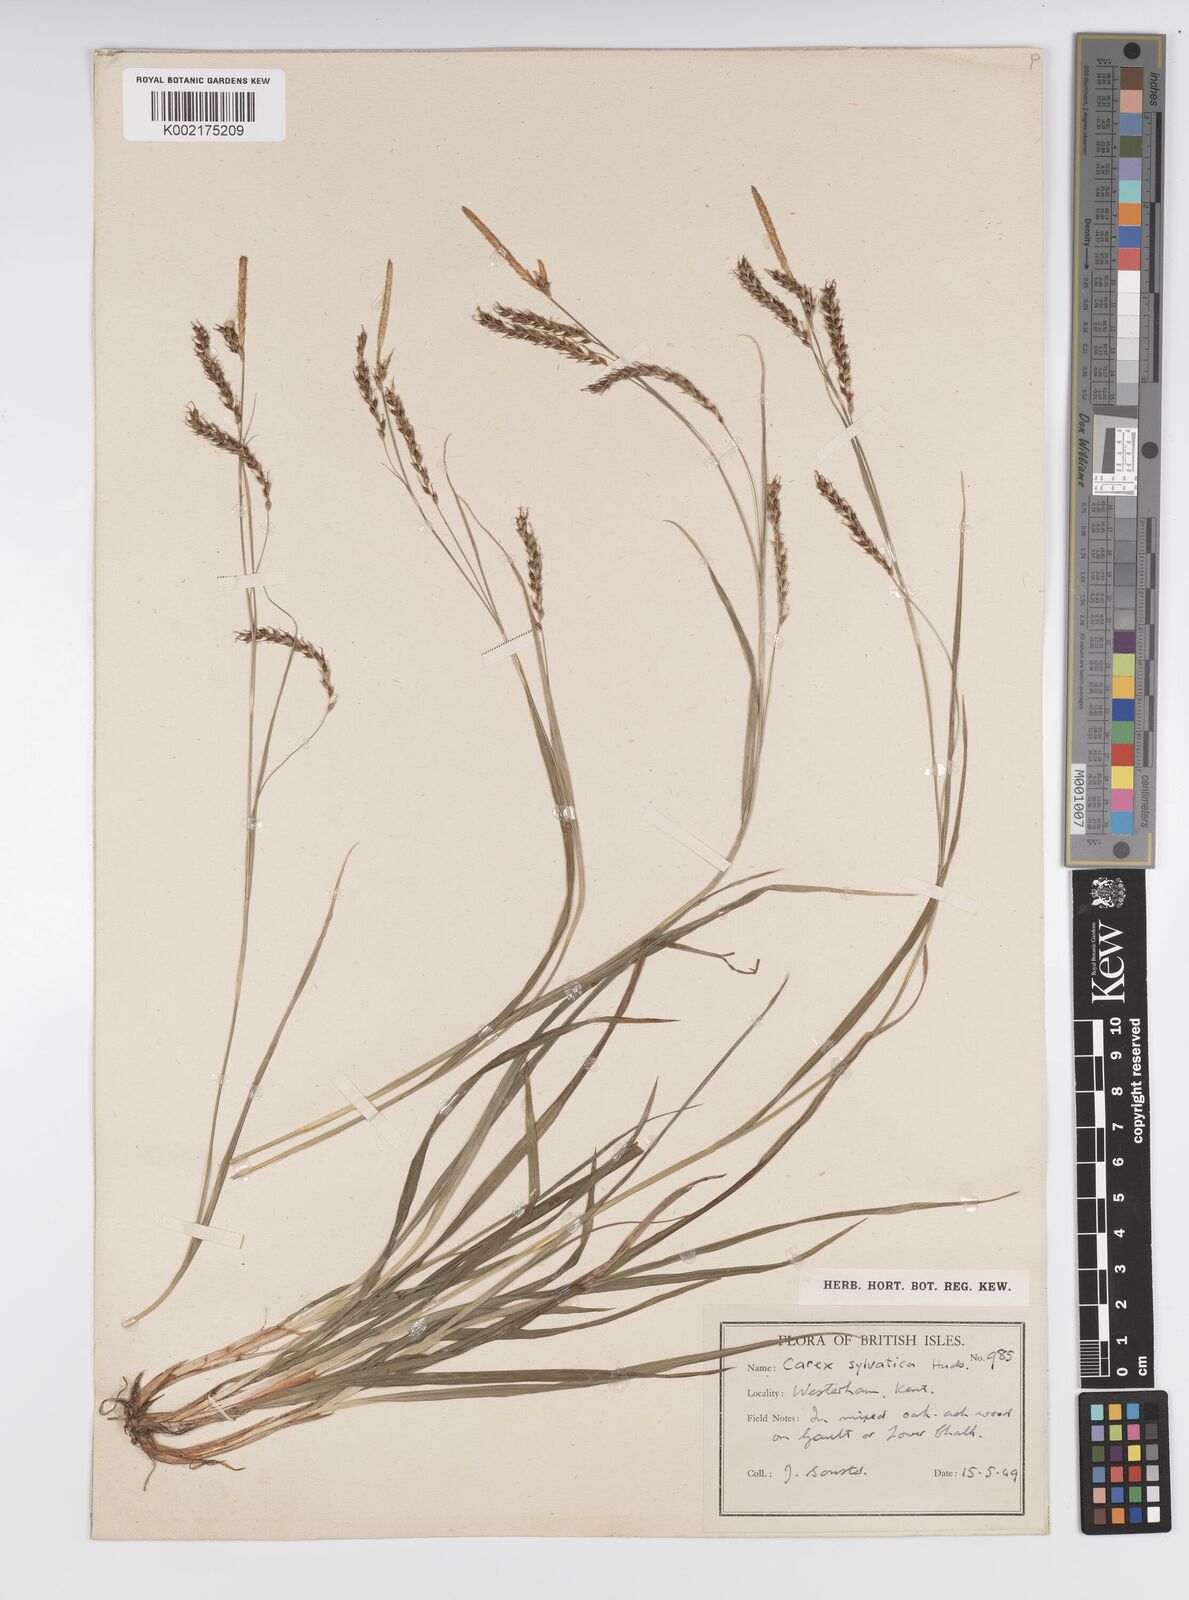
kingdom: Plantae
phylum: Tracheophyta
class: Liliopsida
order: Poales
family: Cyperaceae
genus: Carex
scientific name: Carex sylvatica
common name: Wood-sedge
